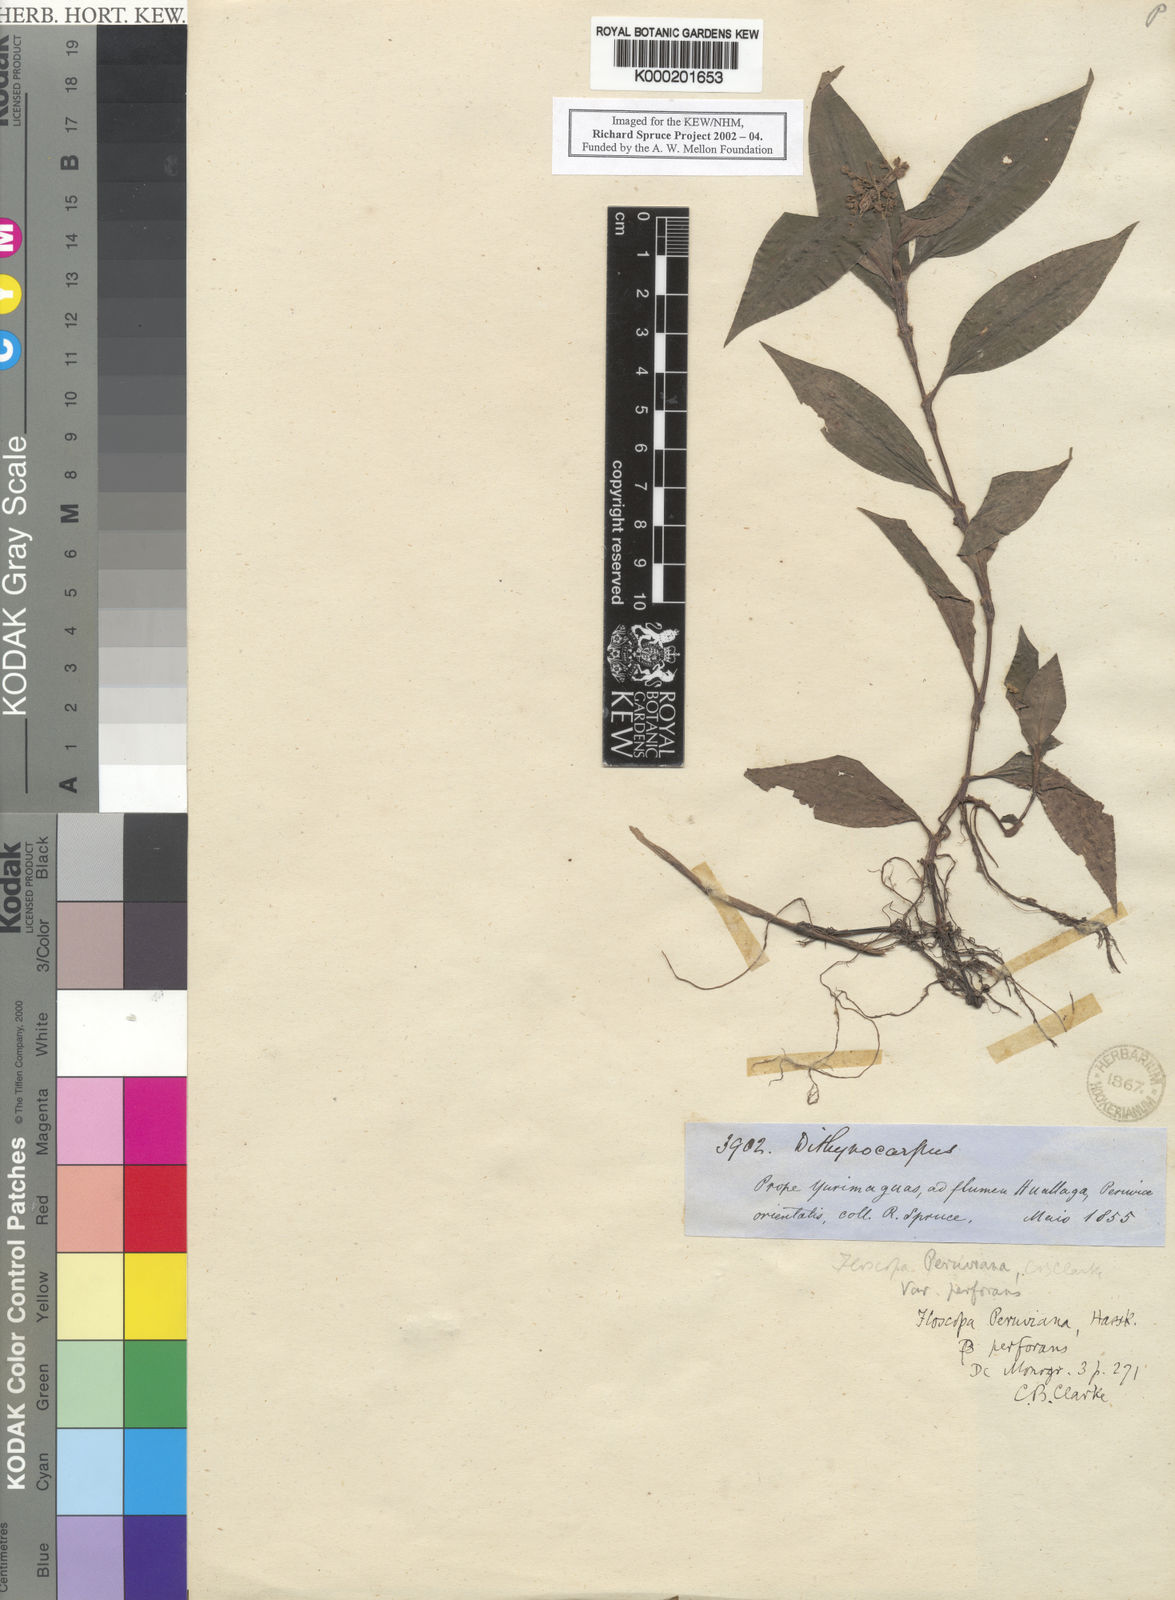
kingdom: Plantae
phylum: Tracheophyta
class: Liliopsida
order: Commelinales
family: Commelinaceae
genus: Floscopa
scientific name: Floscopa peruviana
